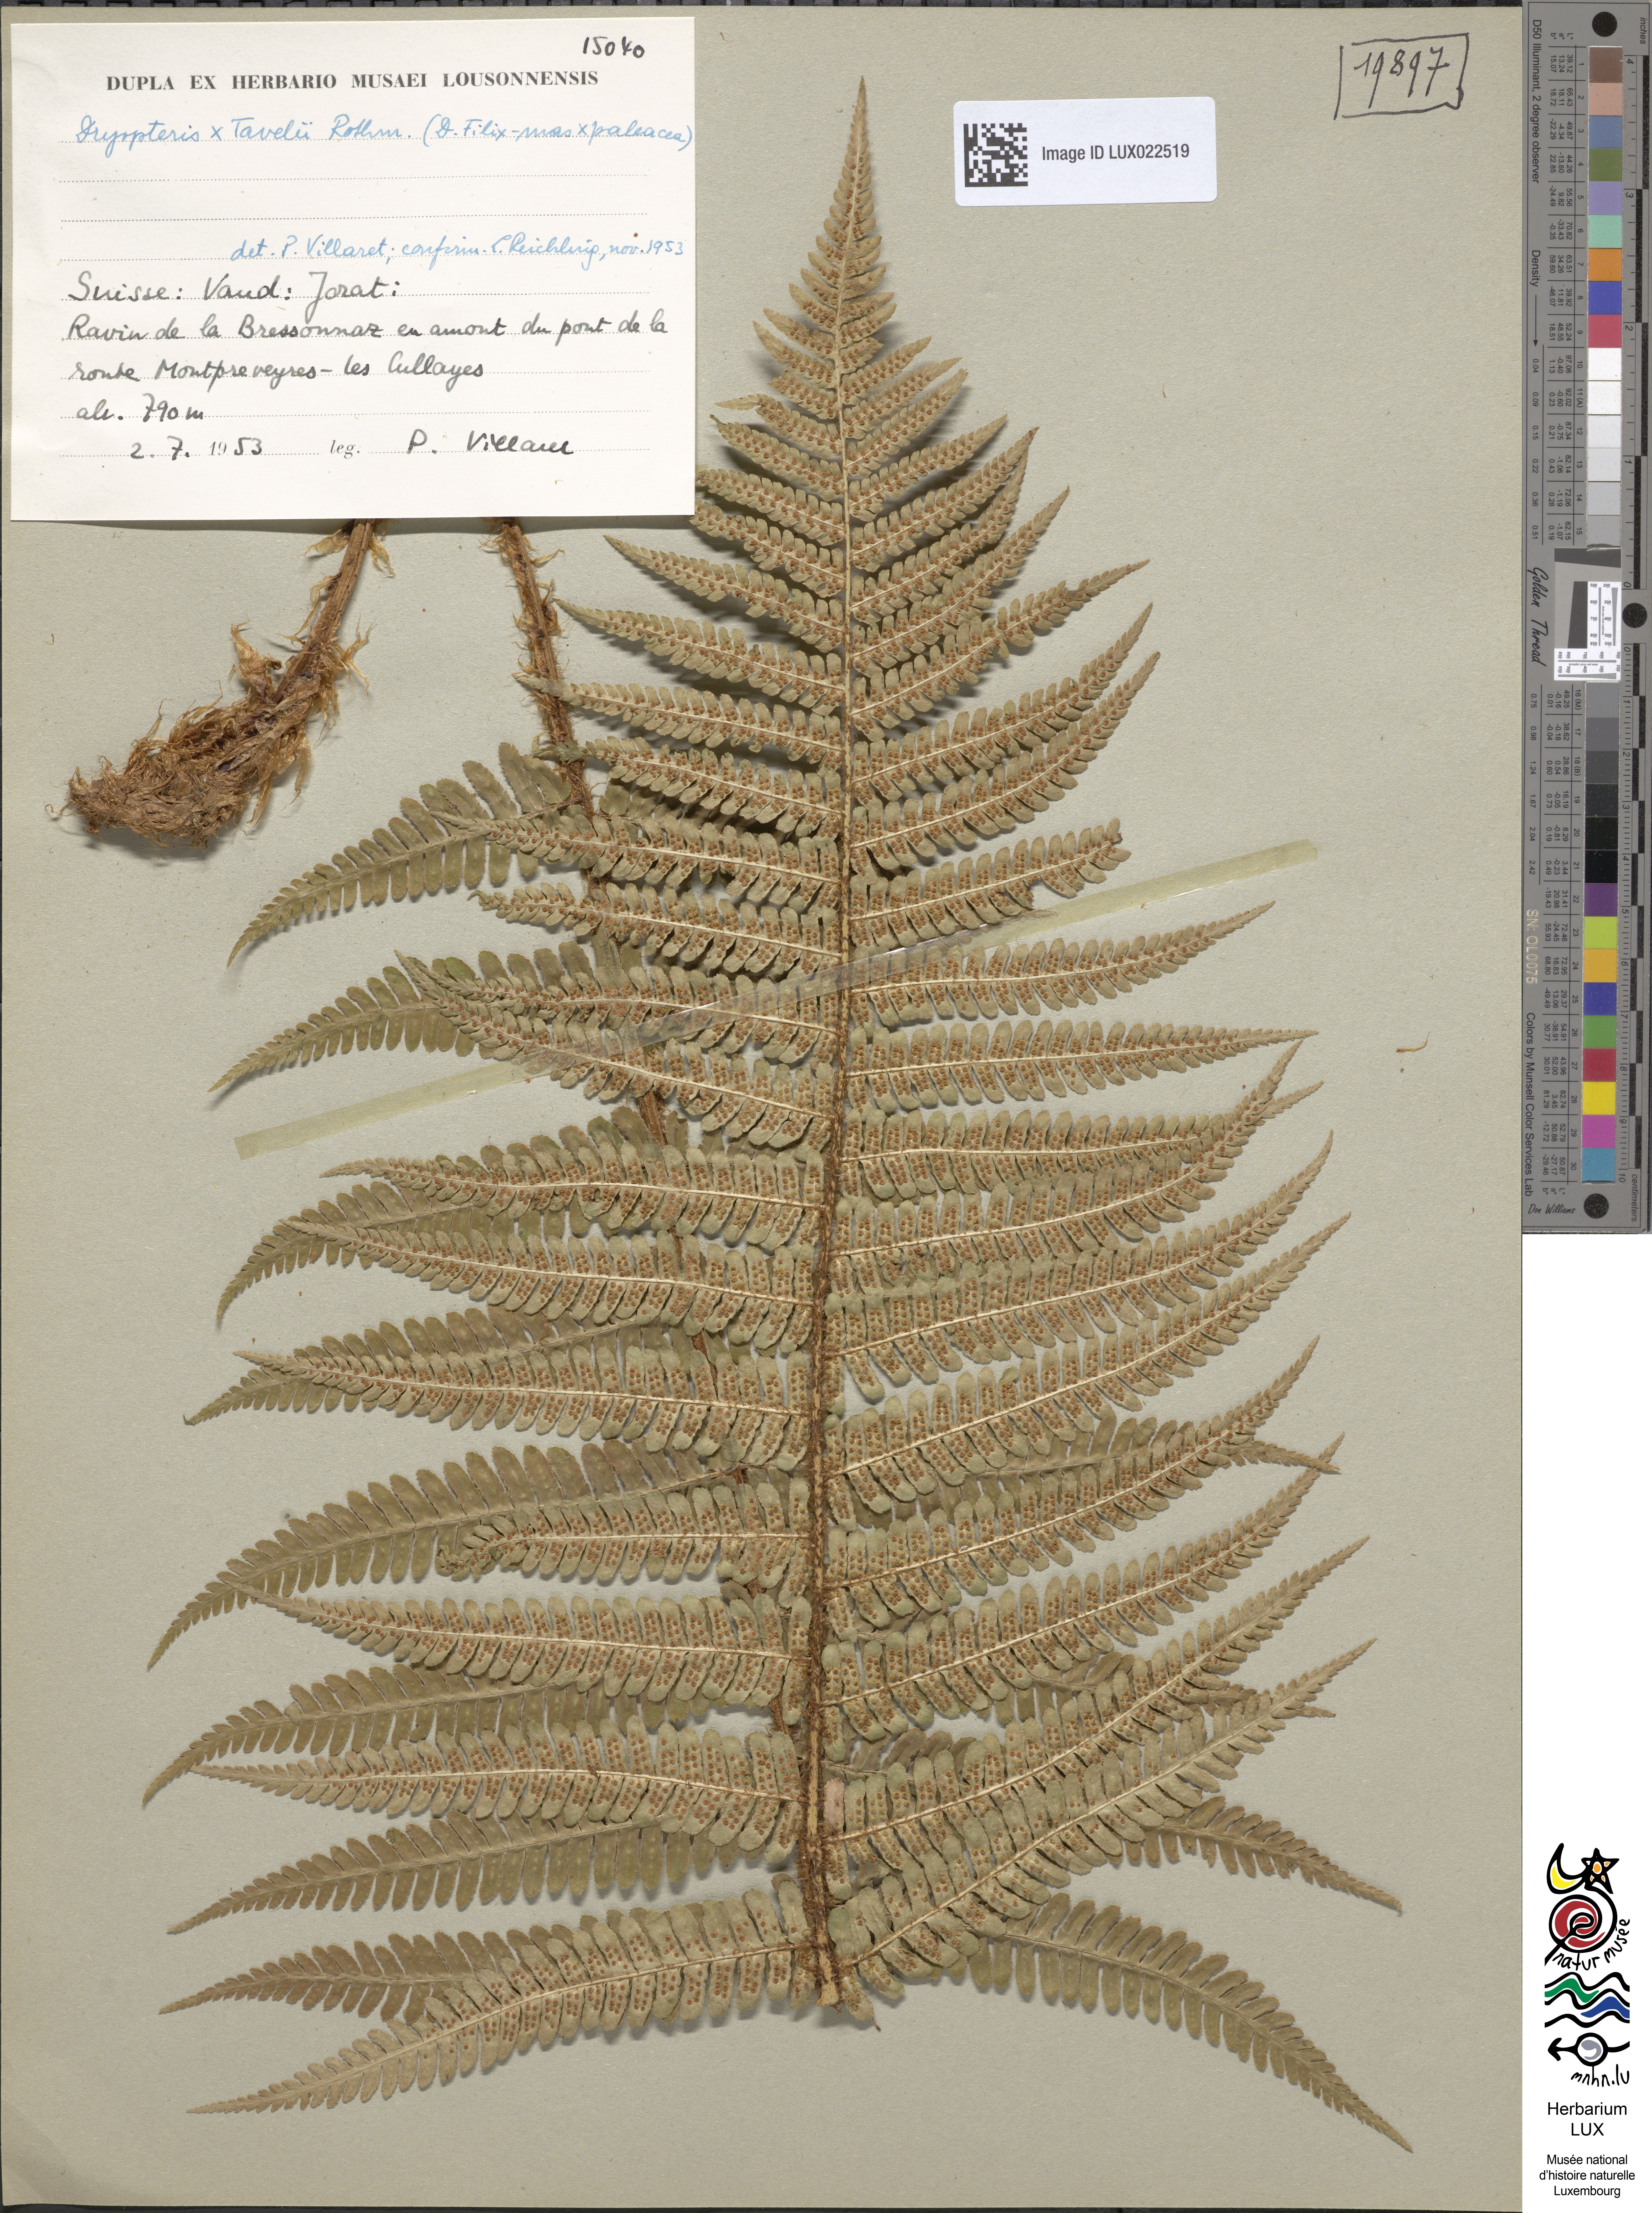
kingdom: Plantae
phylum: Tracheophyta
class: Polypodiopsida
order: Polypodiales
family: Dryopteridaceae
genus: Dryopteris
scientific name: Dryopteris borreri
